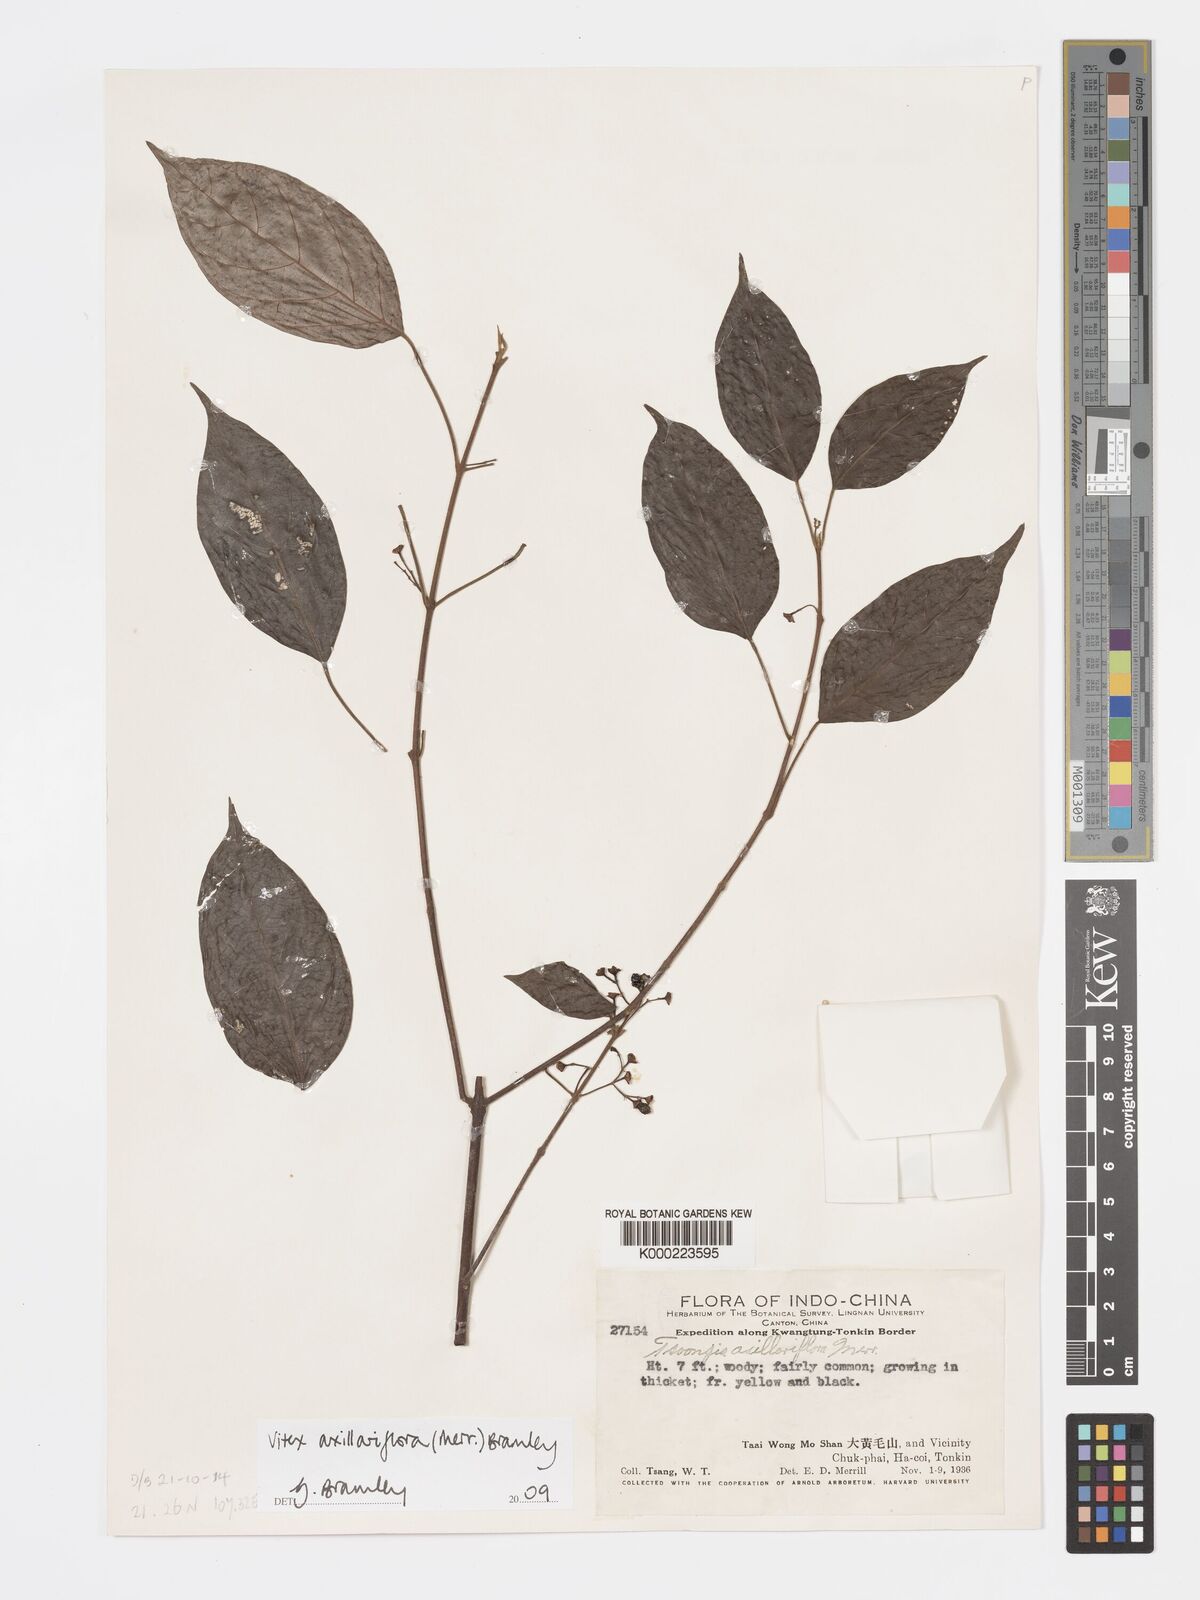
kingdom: Plantae
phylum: Tracheophyta
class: Magnoliopsida
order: Lamiales
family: Lamiaceae
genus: Vitex
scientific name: Vitex axillariflora
